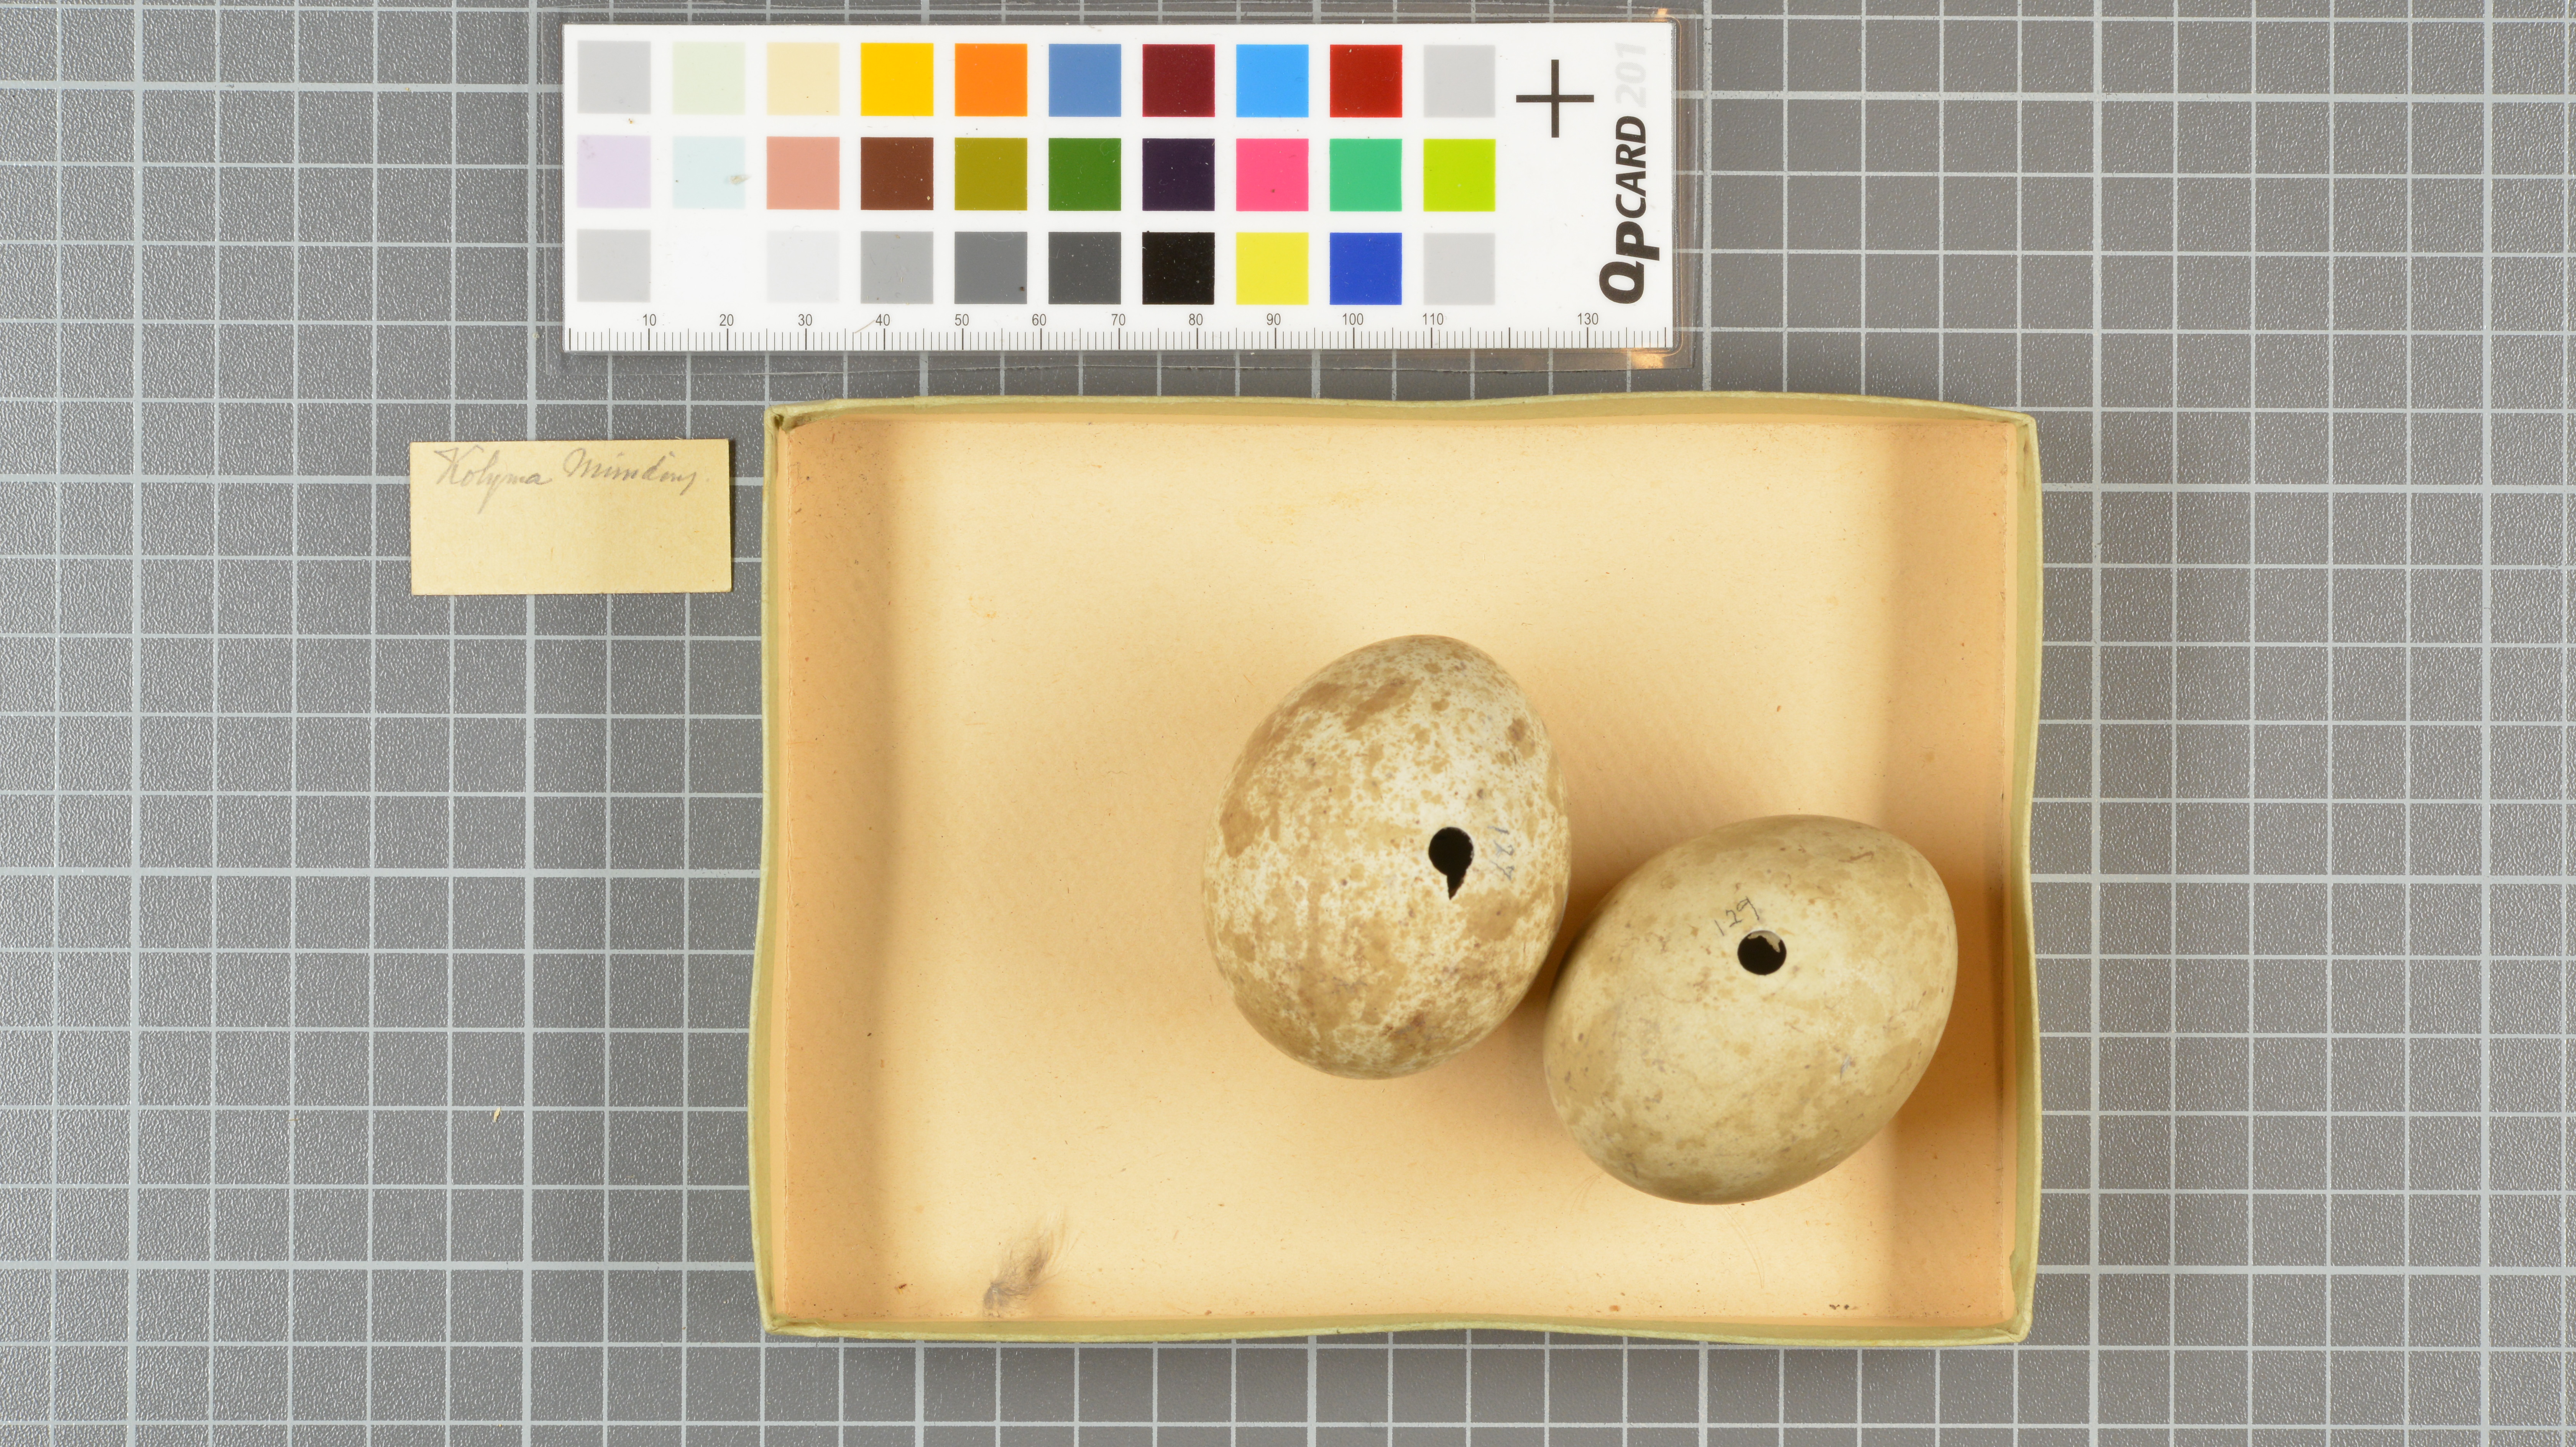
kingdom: Animalia
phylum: Chordata
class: Aves
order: Accipitriformes
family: Accipitridae
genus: Buteo
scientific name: Buteo lagopus
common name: Rough-legged buzzard
